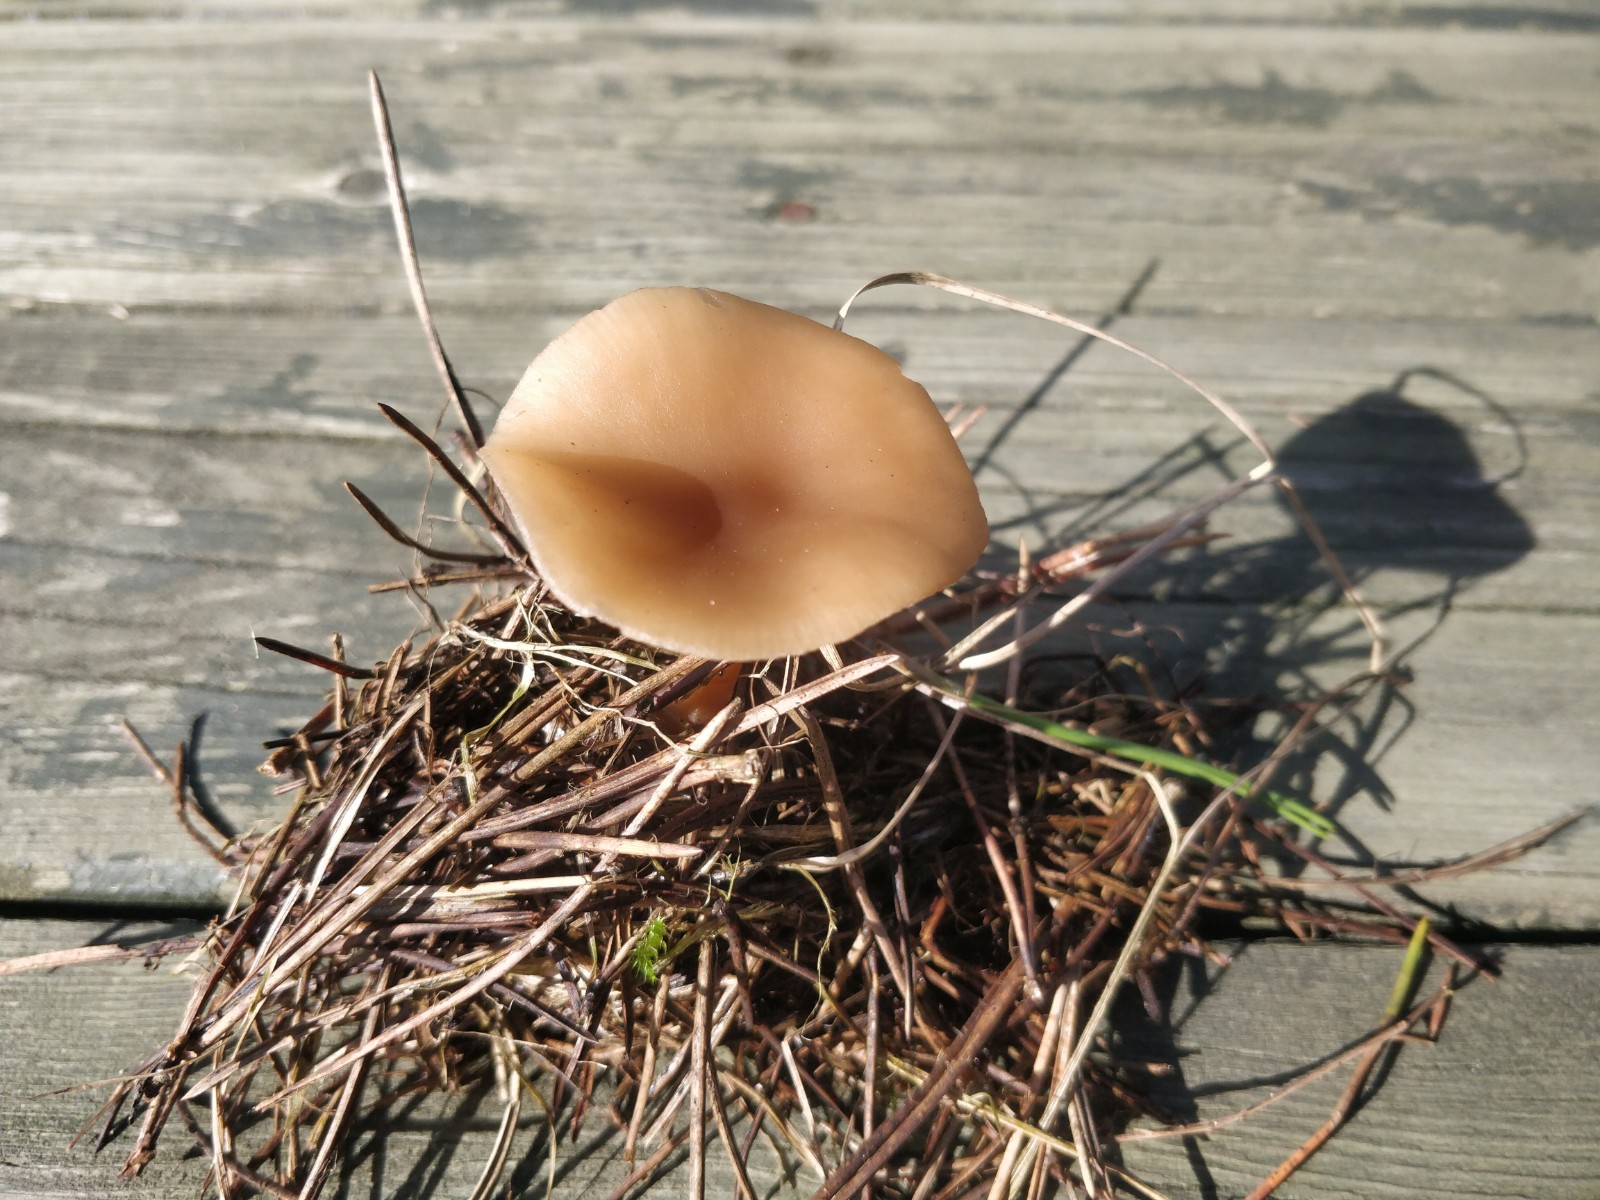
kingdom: Fungi
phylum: Basidiomycota
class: Agaricomycetes
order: Agaricales
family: Tricholomataceae
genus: Clitocybe
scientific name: Clitocybe fragrans
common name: vellugtende tragthat
